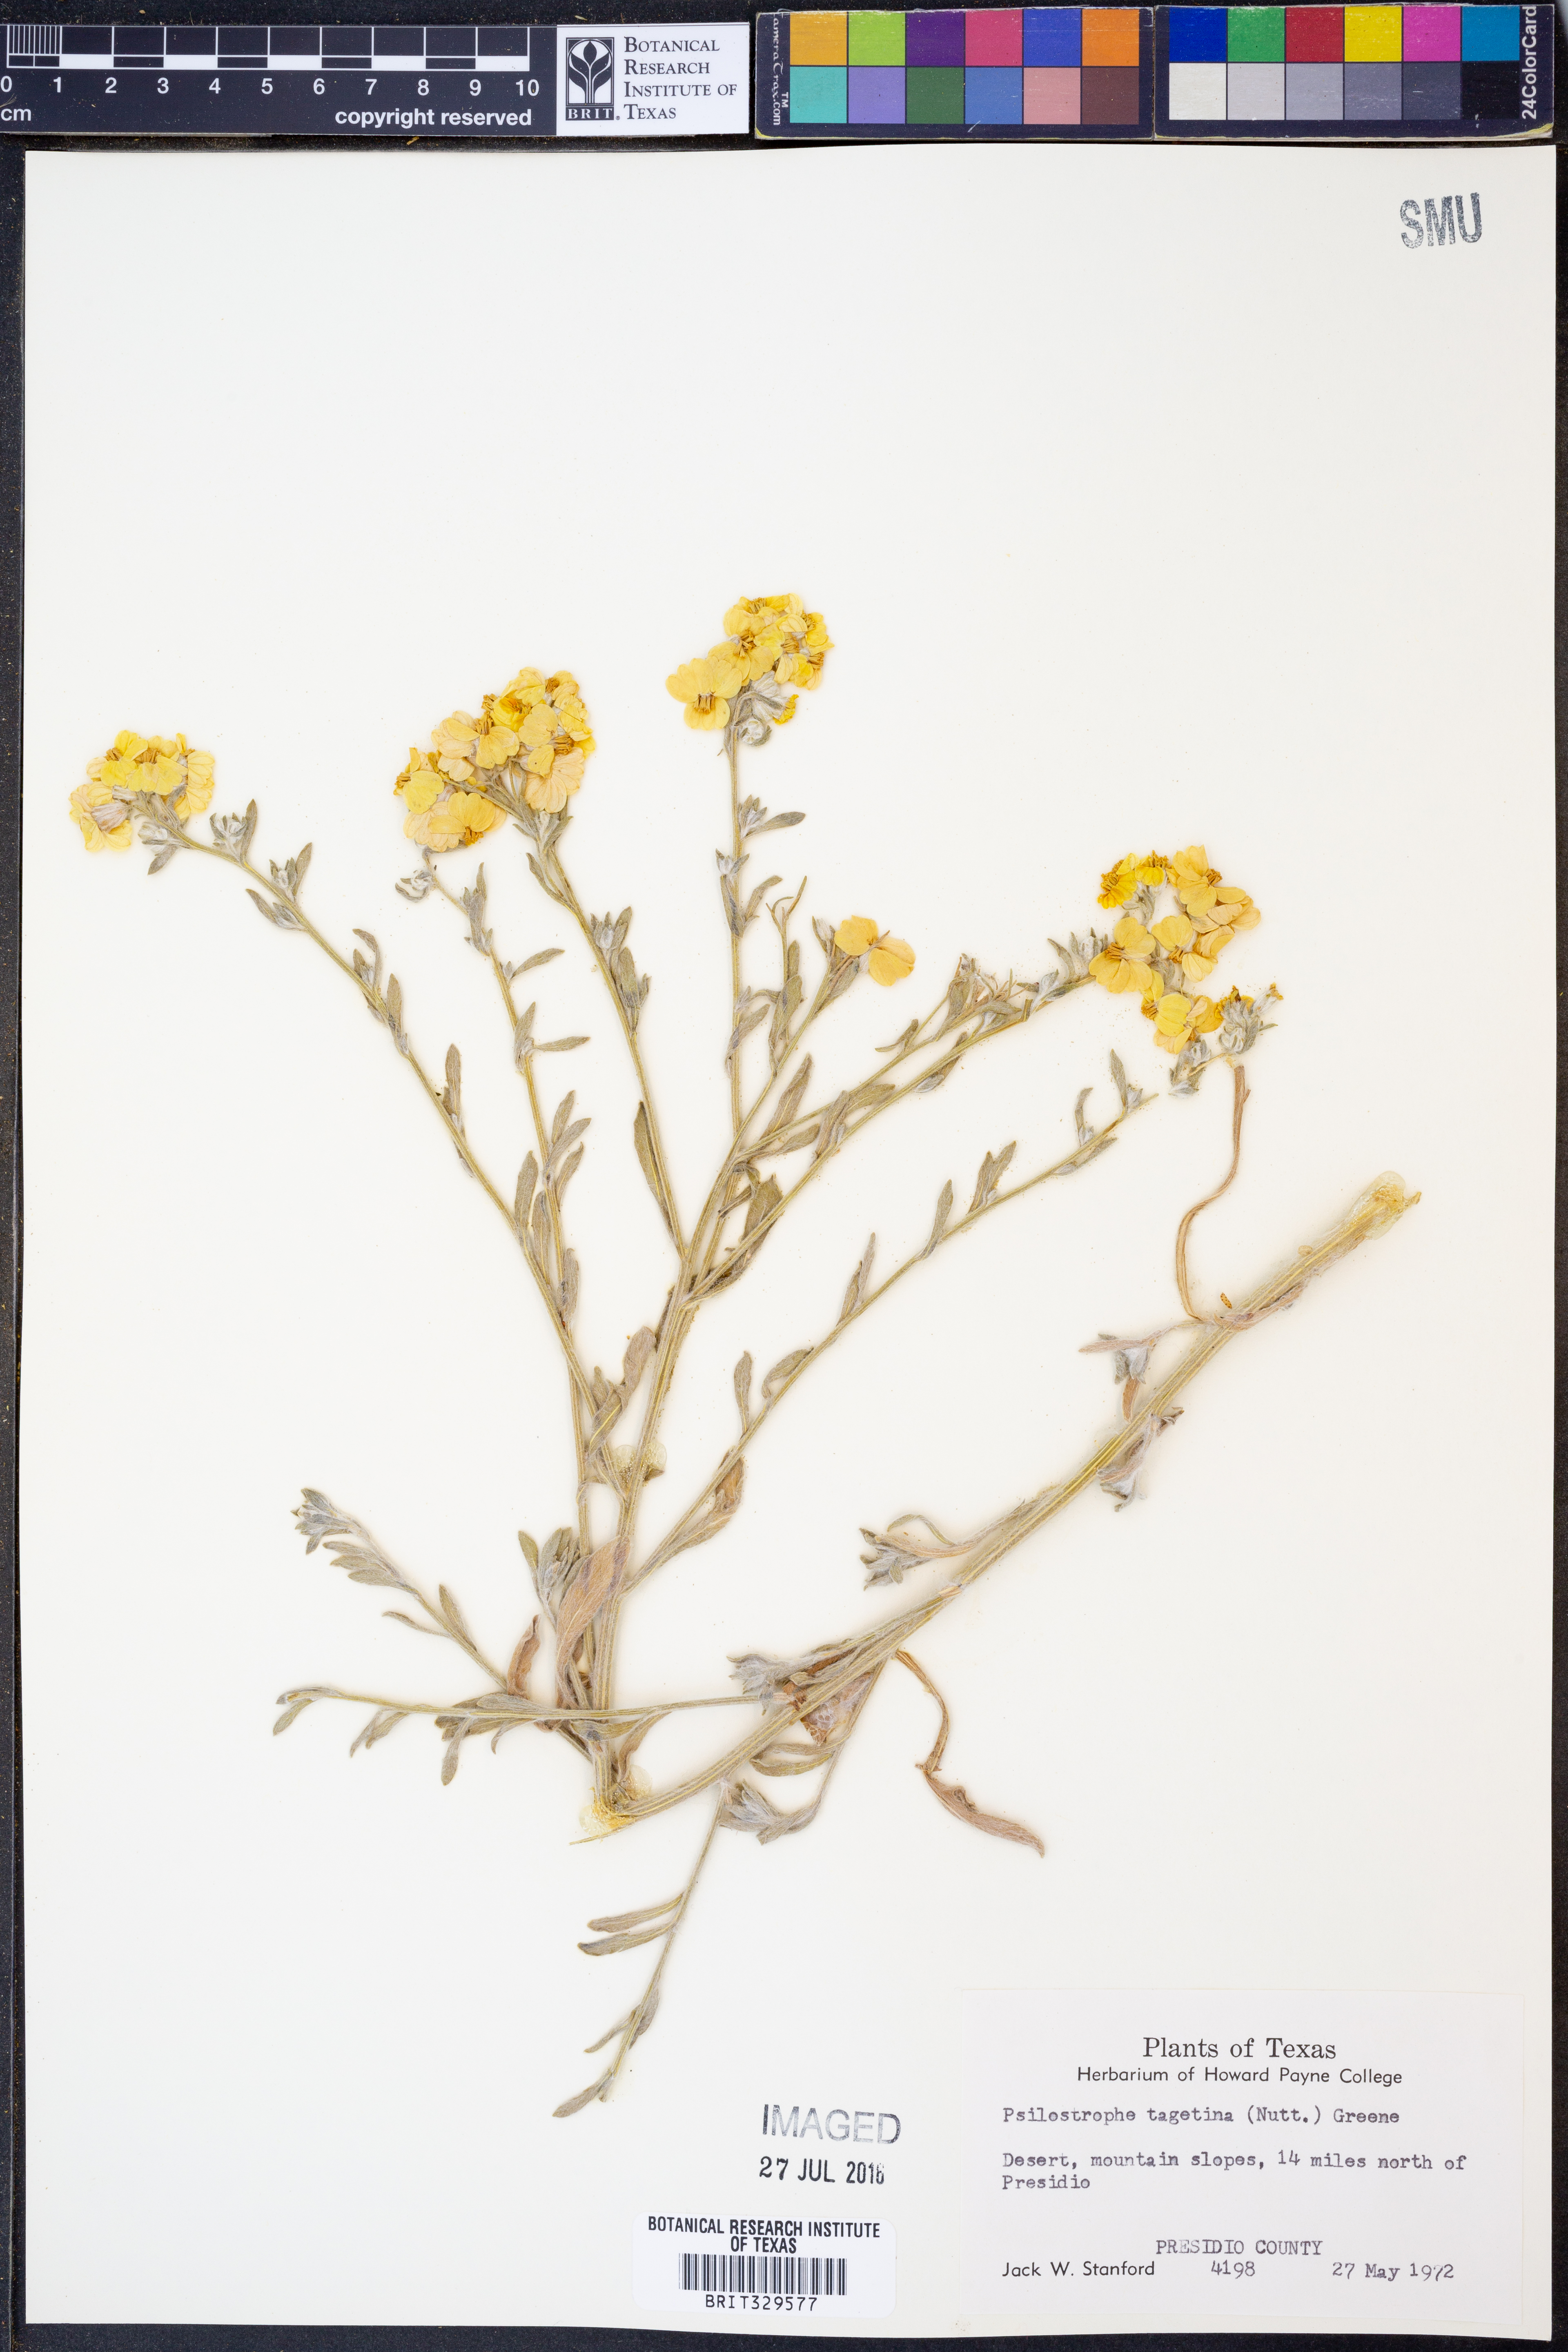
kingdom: Plantae
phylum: Tracheophyta
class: Magnoliopsida
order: Asterales
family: Asteraceae
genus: Psilostrophe
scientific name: Psilostrophe tagetina
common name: Marigold paper-flower
